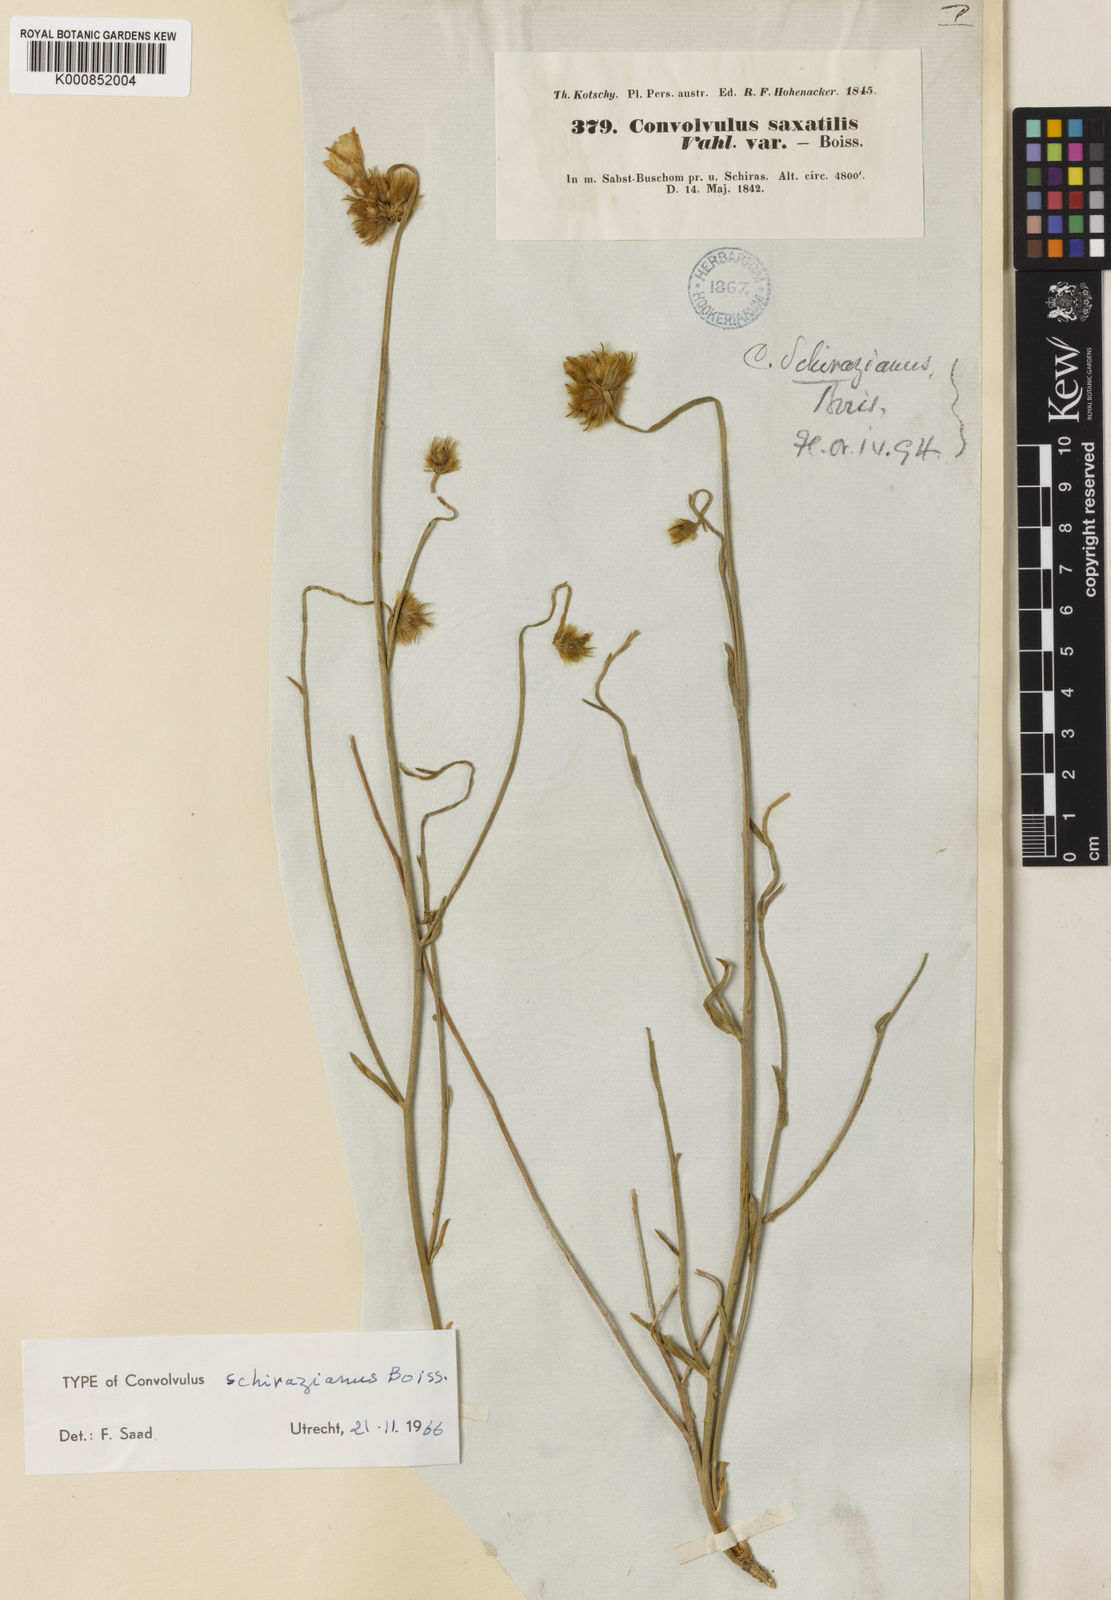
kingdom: Plantae
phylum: Tracheophyta
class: Magnoliopsida
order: Solanales
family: Convolvulaceae
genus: Convolvulus
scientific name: Convolvulus schirazianus
